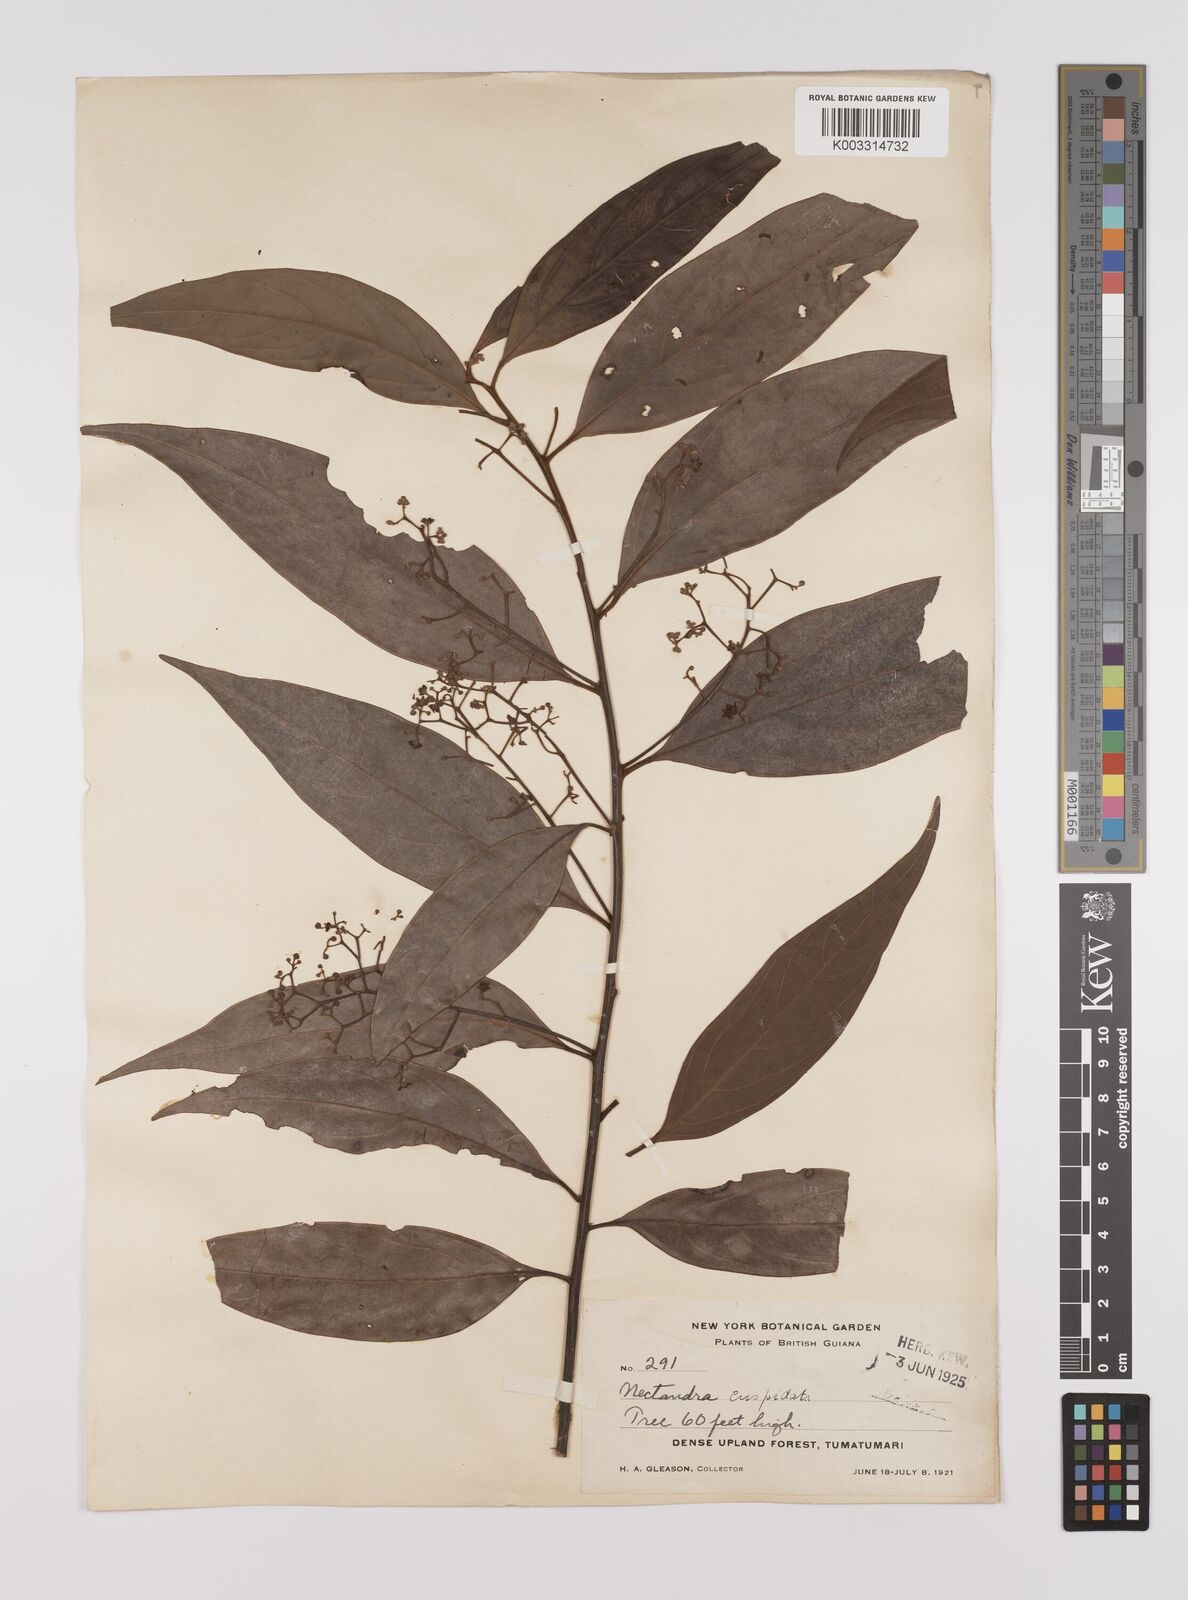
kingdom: Plantae
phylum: Tracheophyta
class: Magnoliopsida
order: Laurales
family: Lauraceae
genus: Nectandra
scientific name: Nectandra cuspidata
